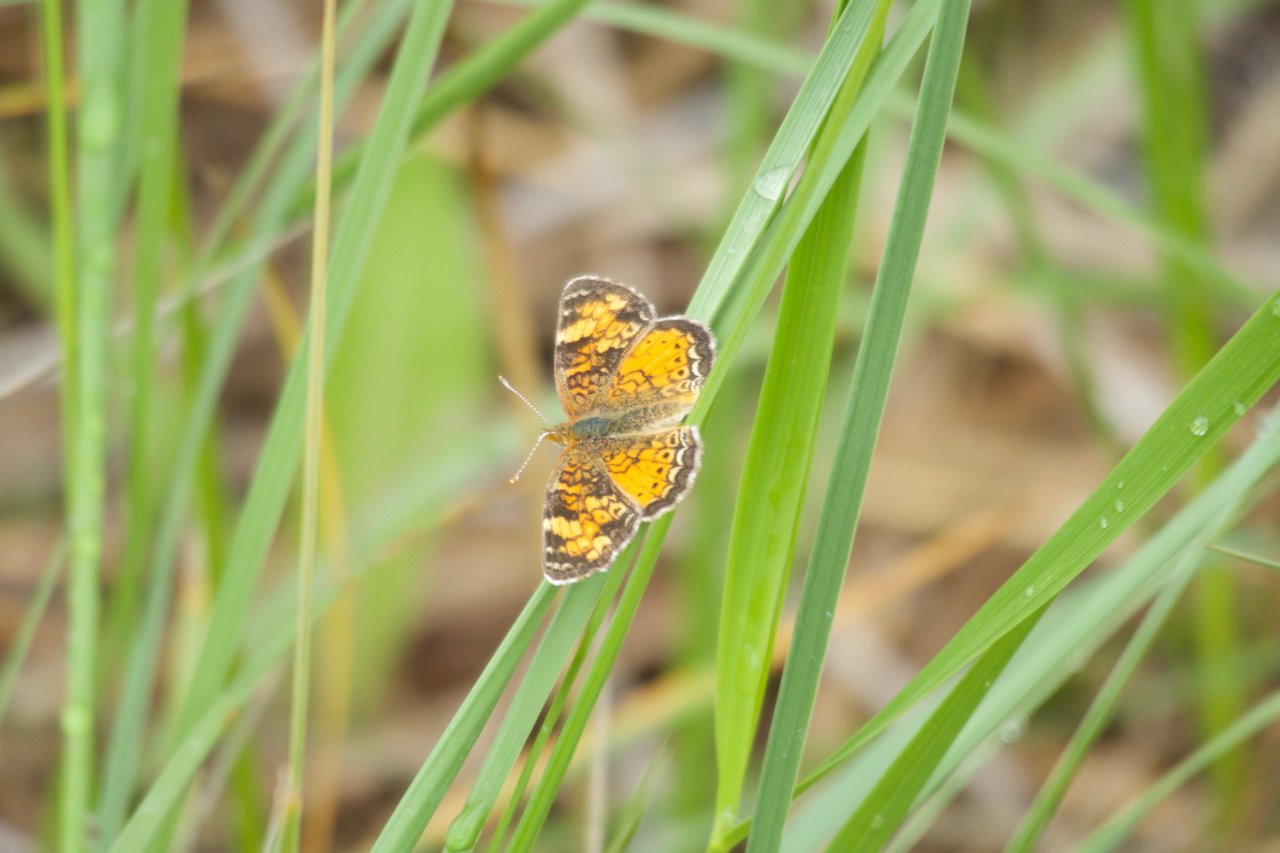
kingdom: Animalia
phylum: Arthropoda
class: Insecta
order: Lepidoptera
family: Nymphalidae
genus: Phyciodes
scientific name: Phyciodes tharos
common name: Northern Crescent
